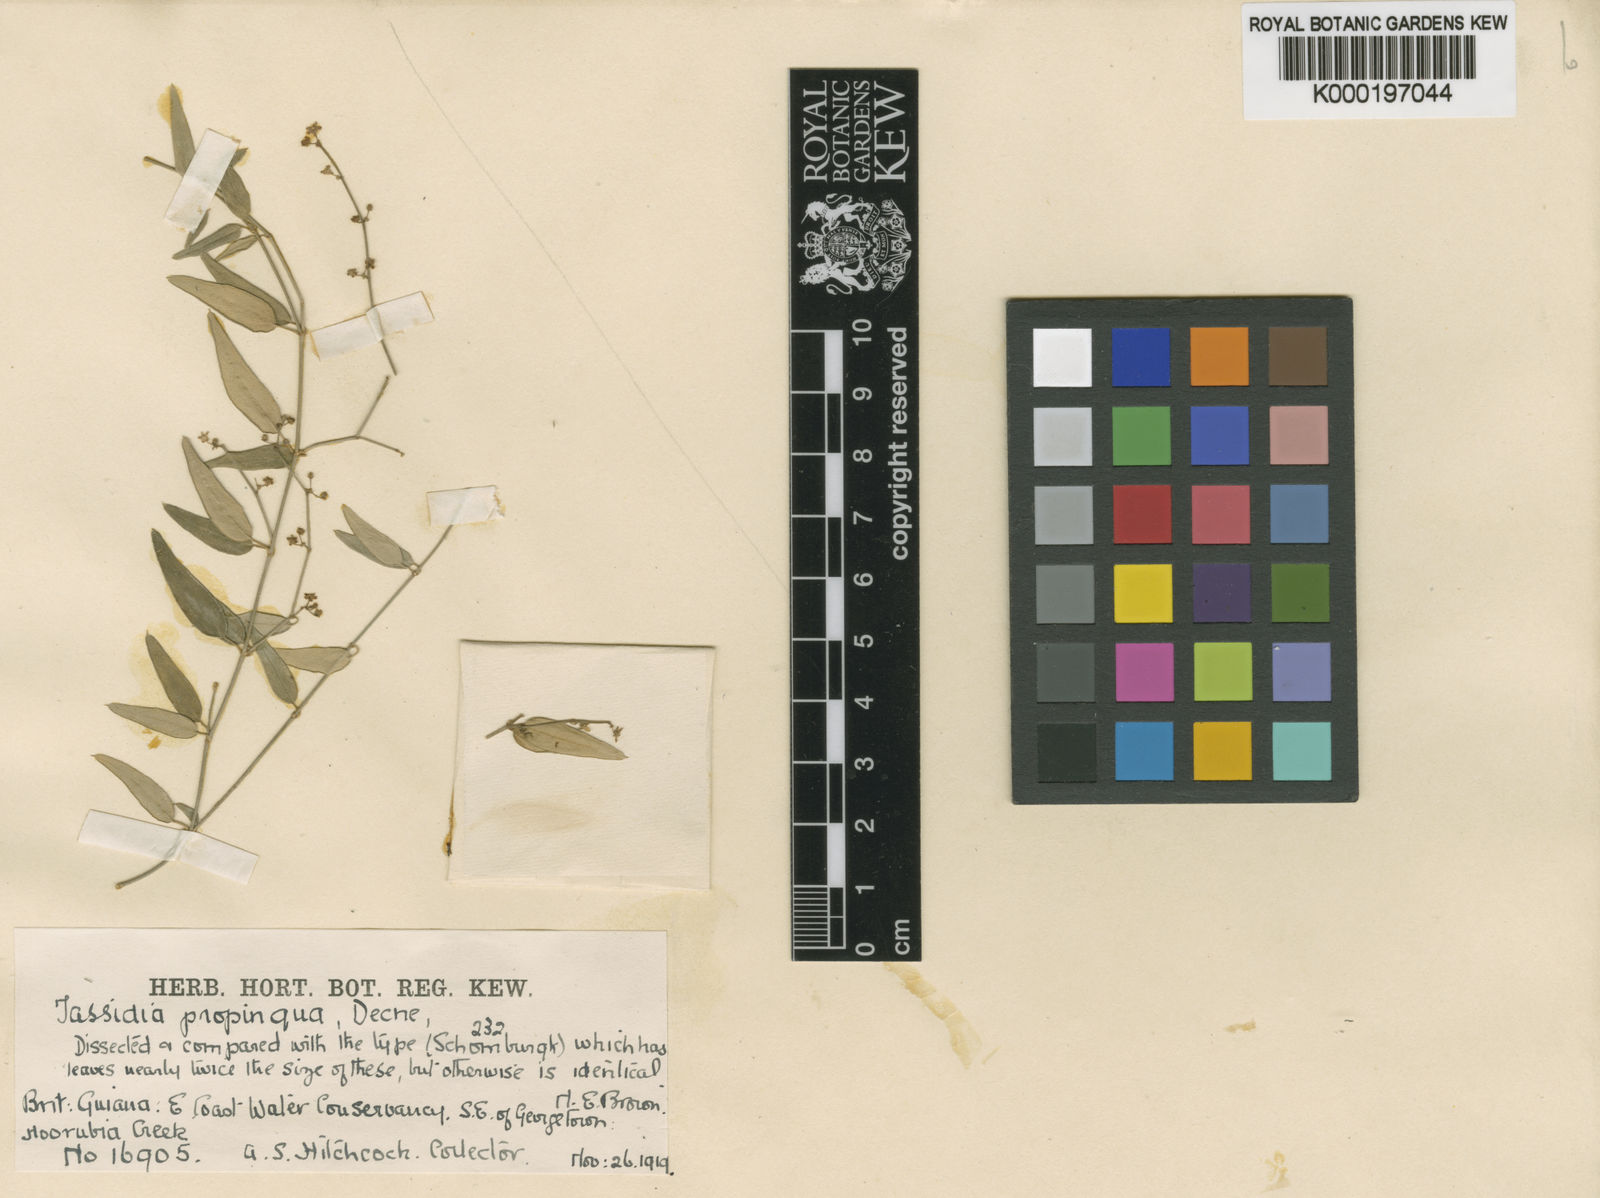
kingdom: Plantae
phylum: Tracheophyta
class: Magnoliopsida
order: Gentianales
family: Apocynaceae
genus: Tassadia
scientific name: Tassadia propinqua
